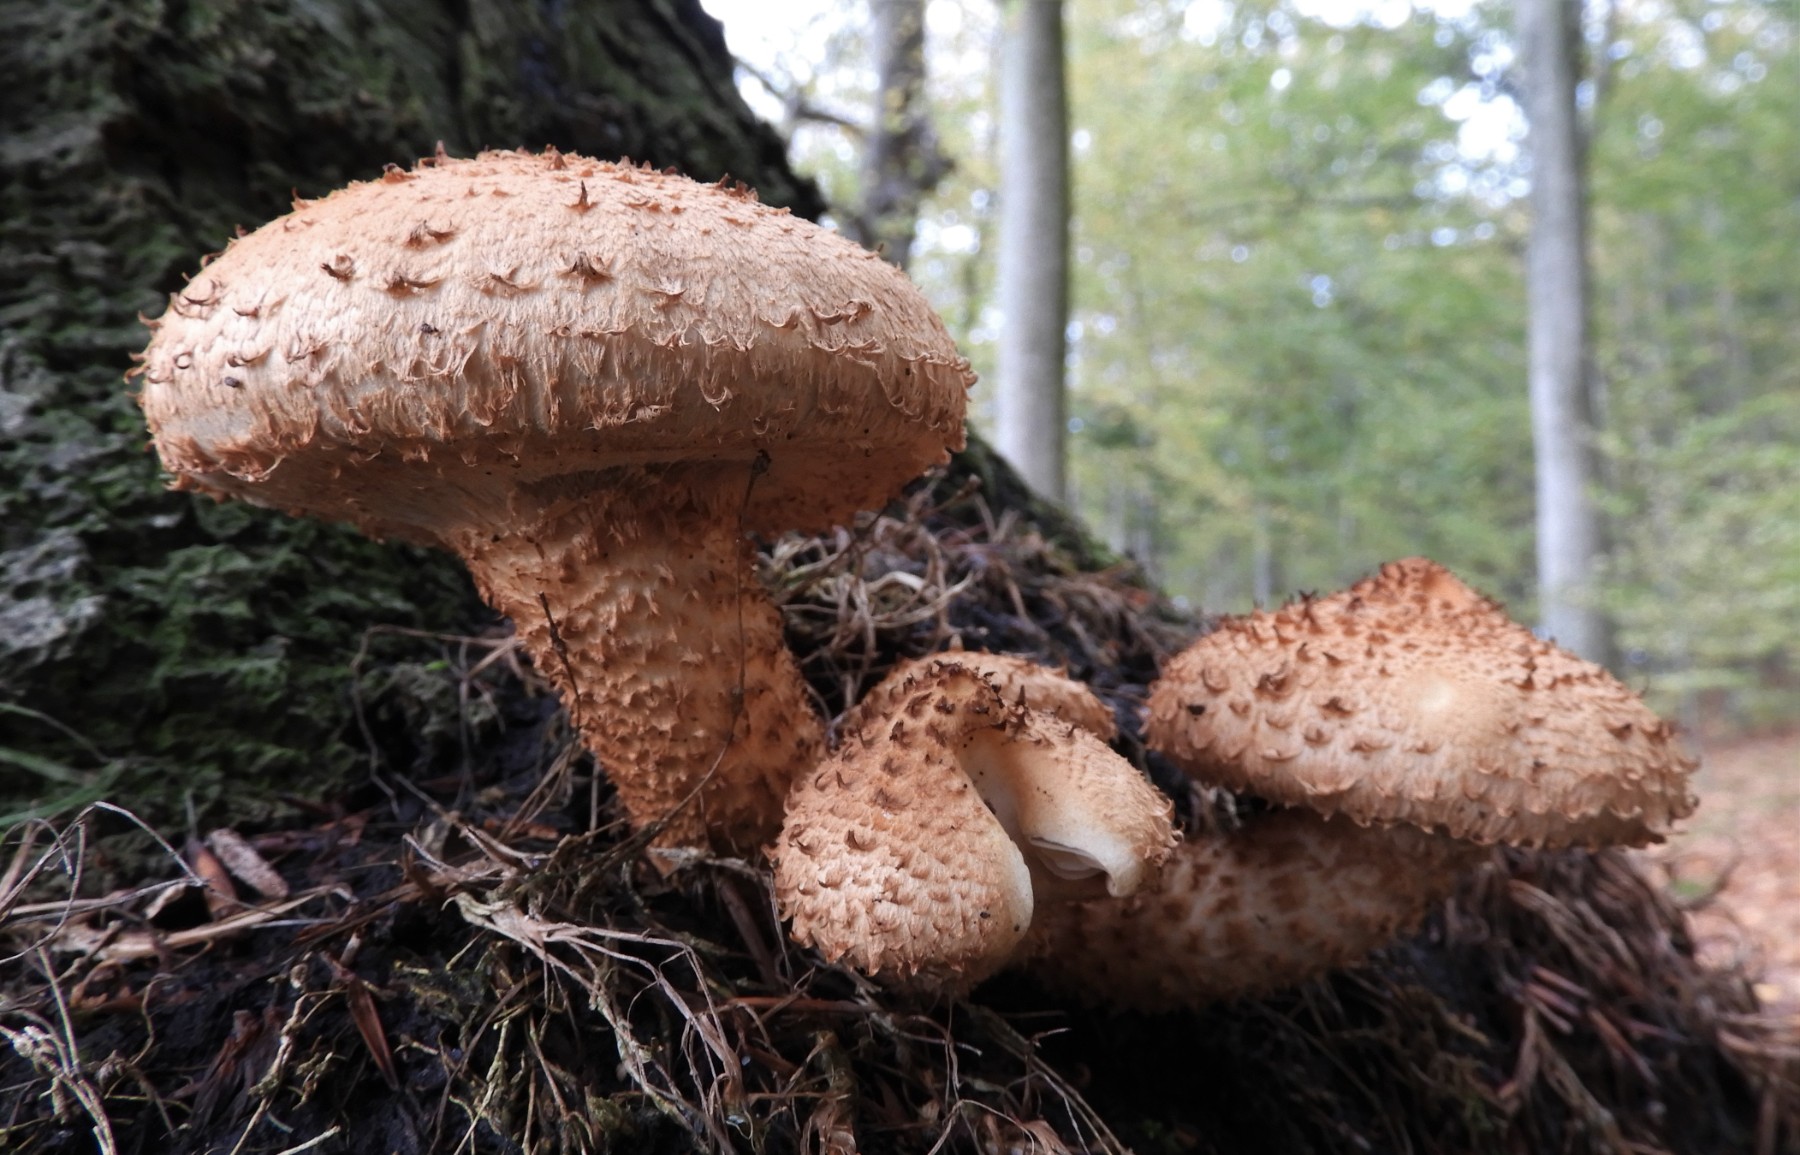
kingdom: Fungi
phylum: Basidiomycota
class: Agaricomycetes
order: Agaricales
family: Strophariaceae
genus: Pholiota
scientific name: Pholiota squarrosa
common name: krumskællet skælhat
